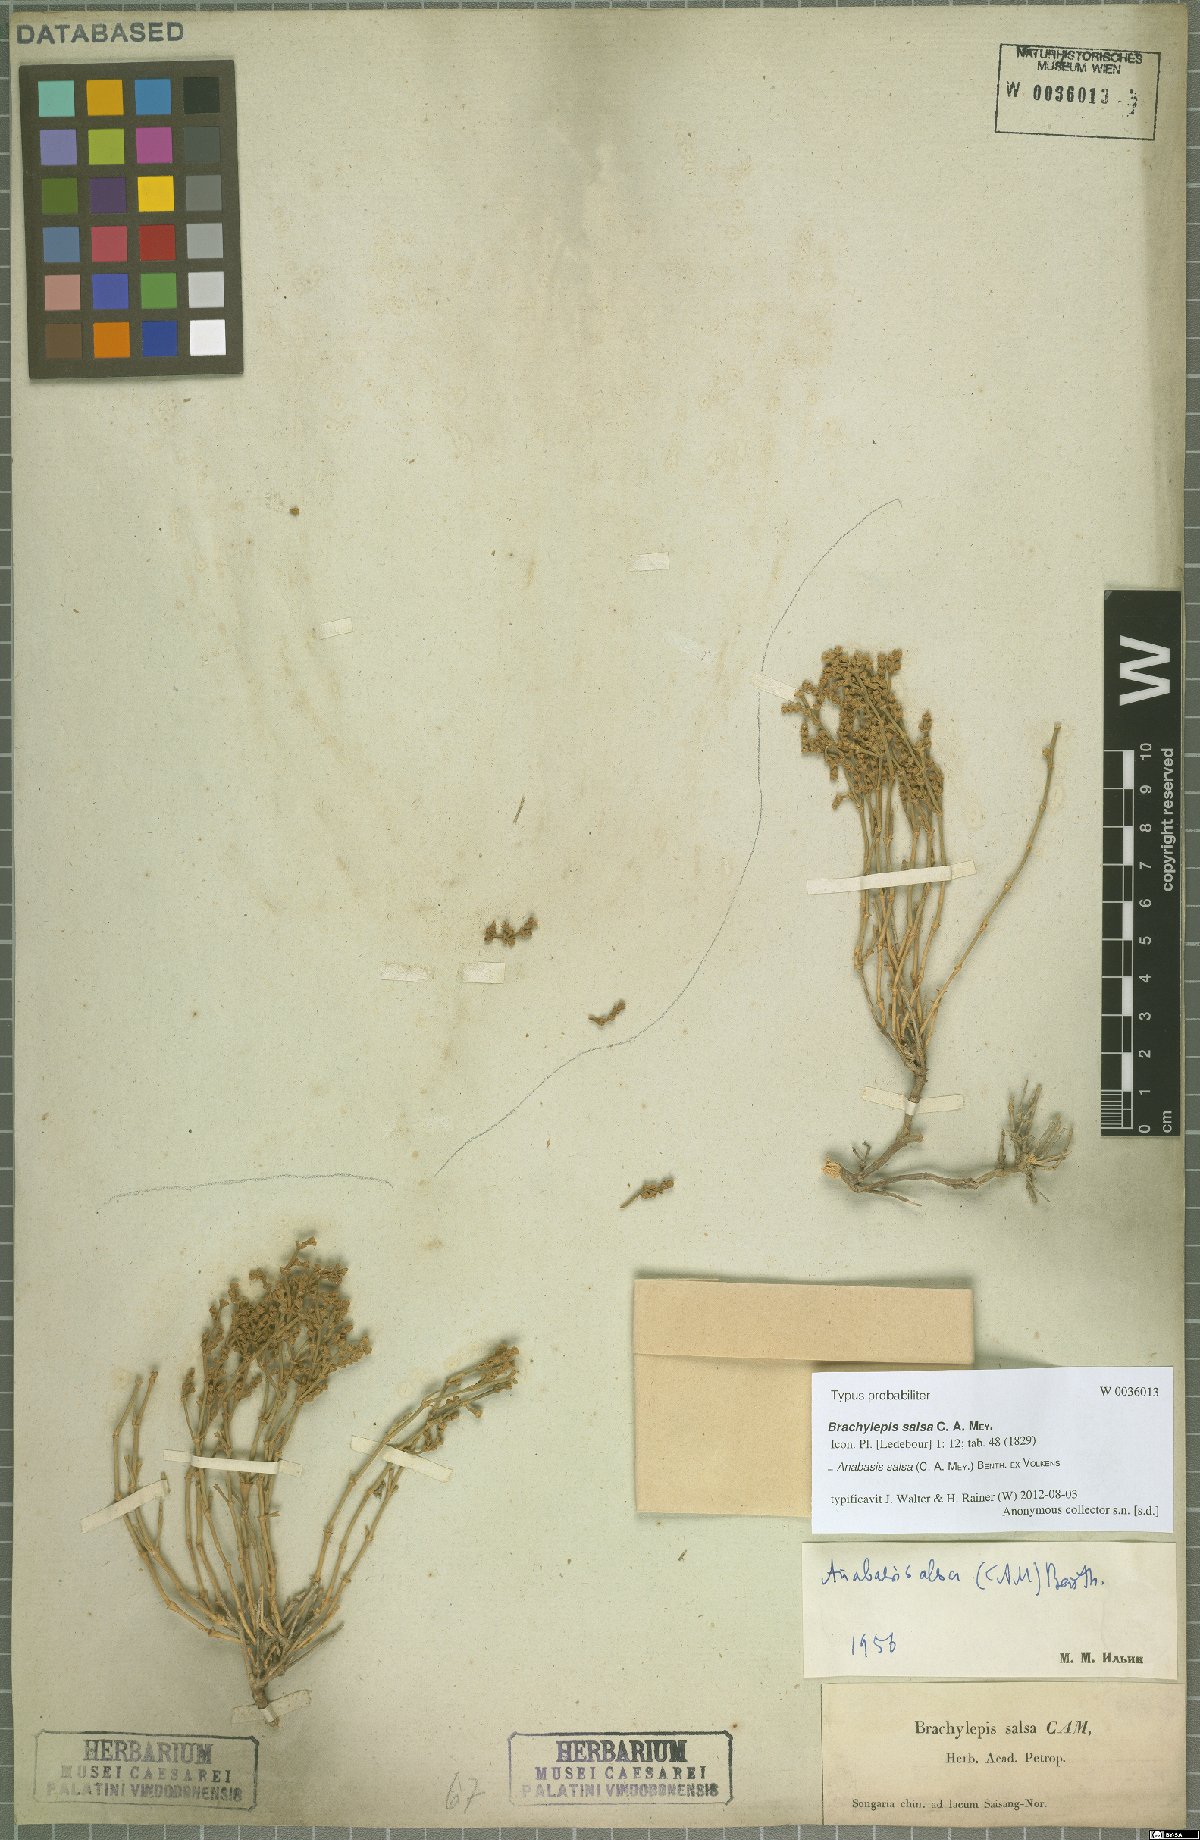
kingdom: Plantae
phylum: Tracheophyta
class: Magnoliopsida
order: Caryophyllales
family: Amaranthaceae
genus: Anabasis
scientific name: Anabasis salsa
